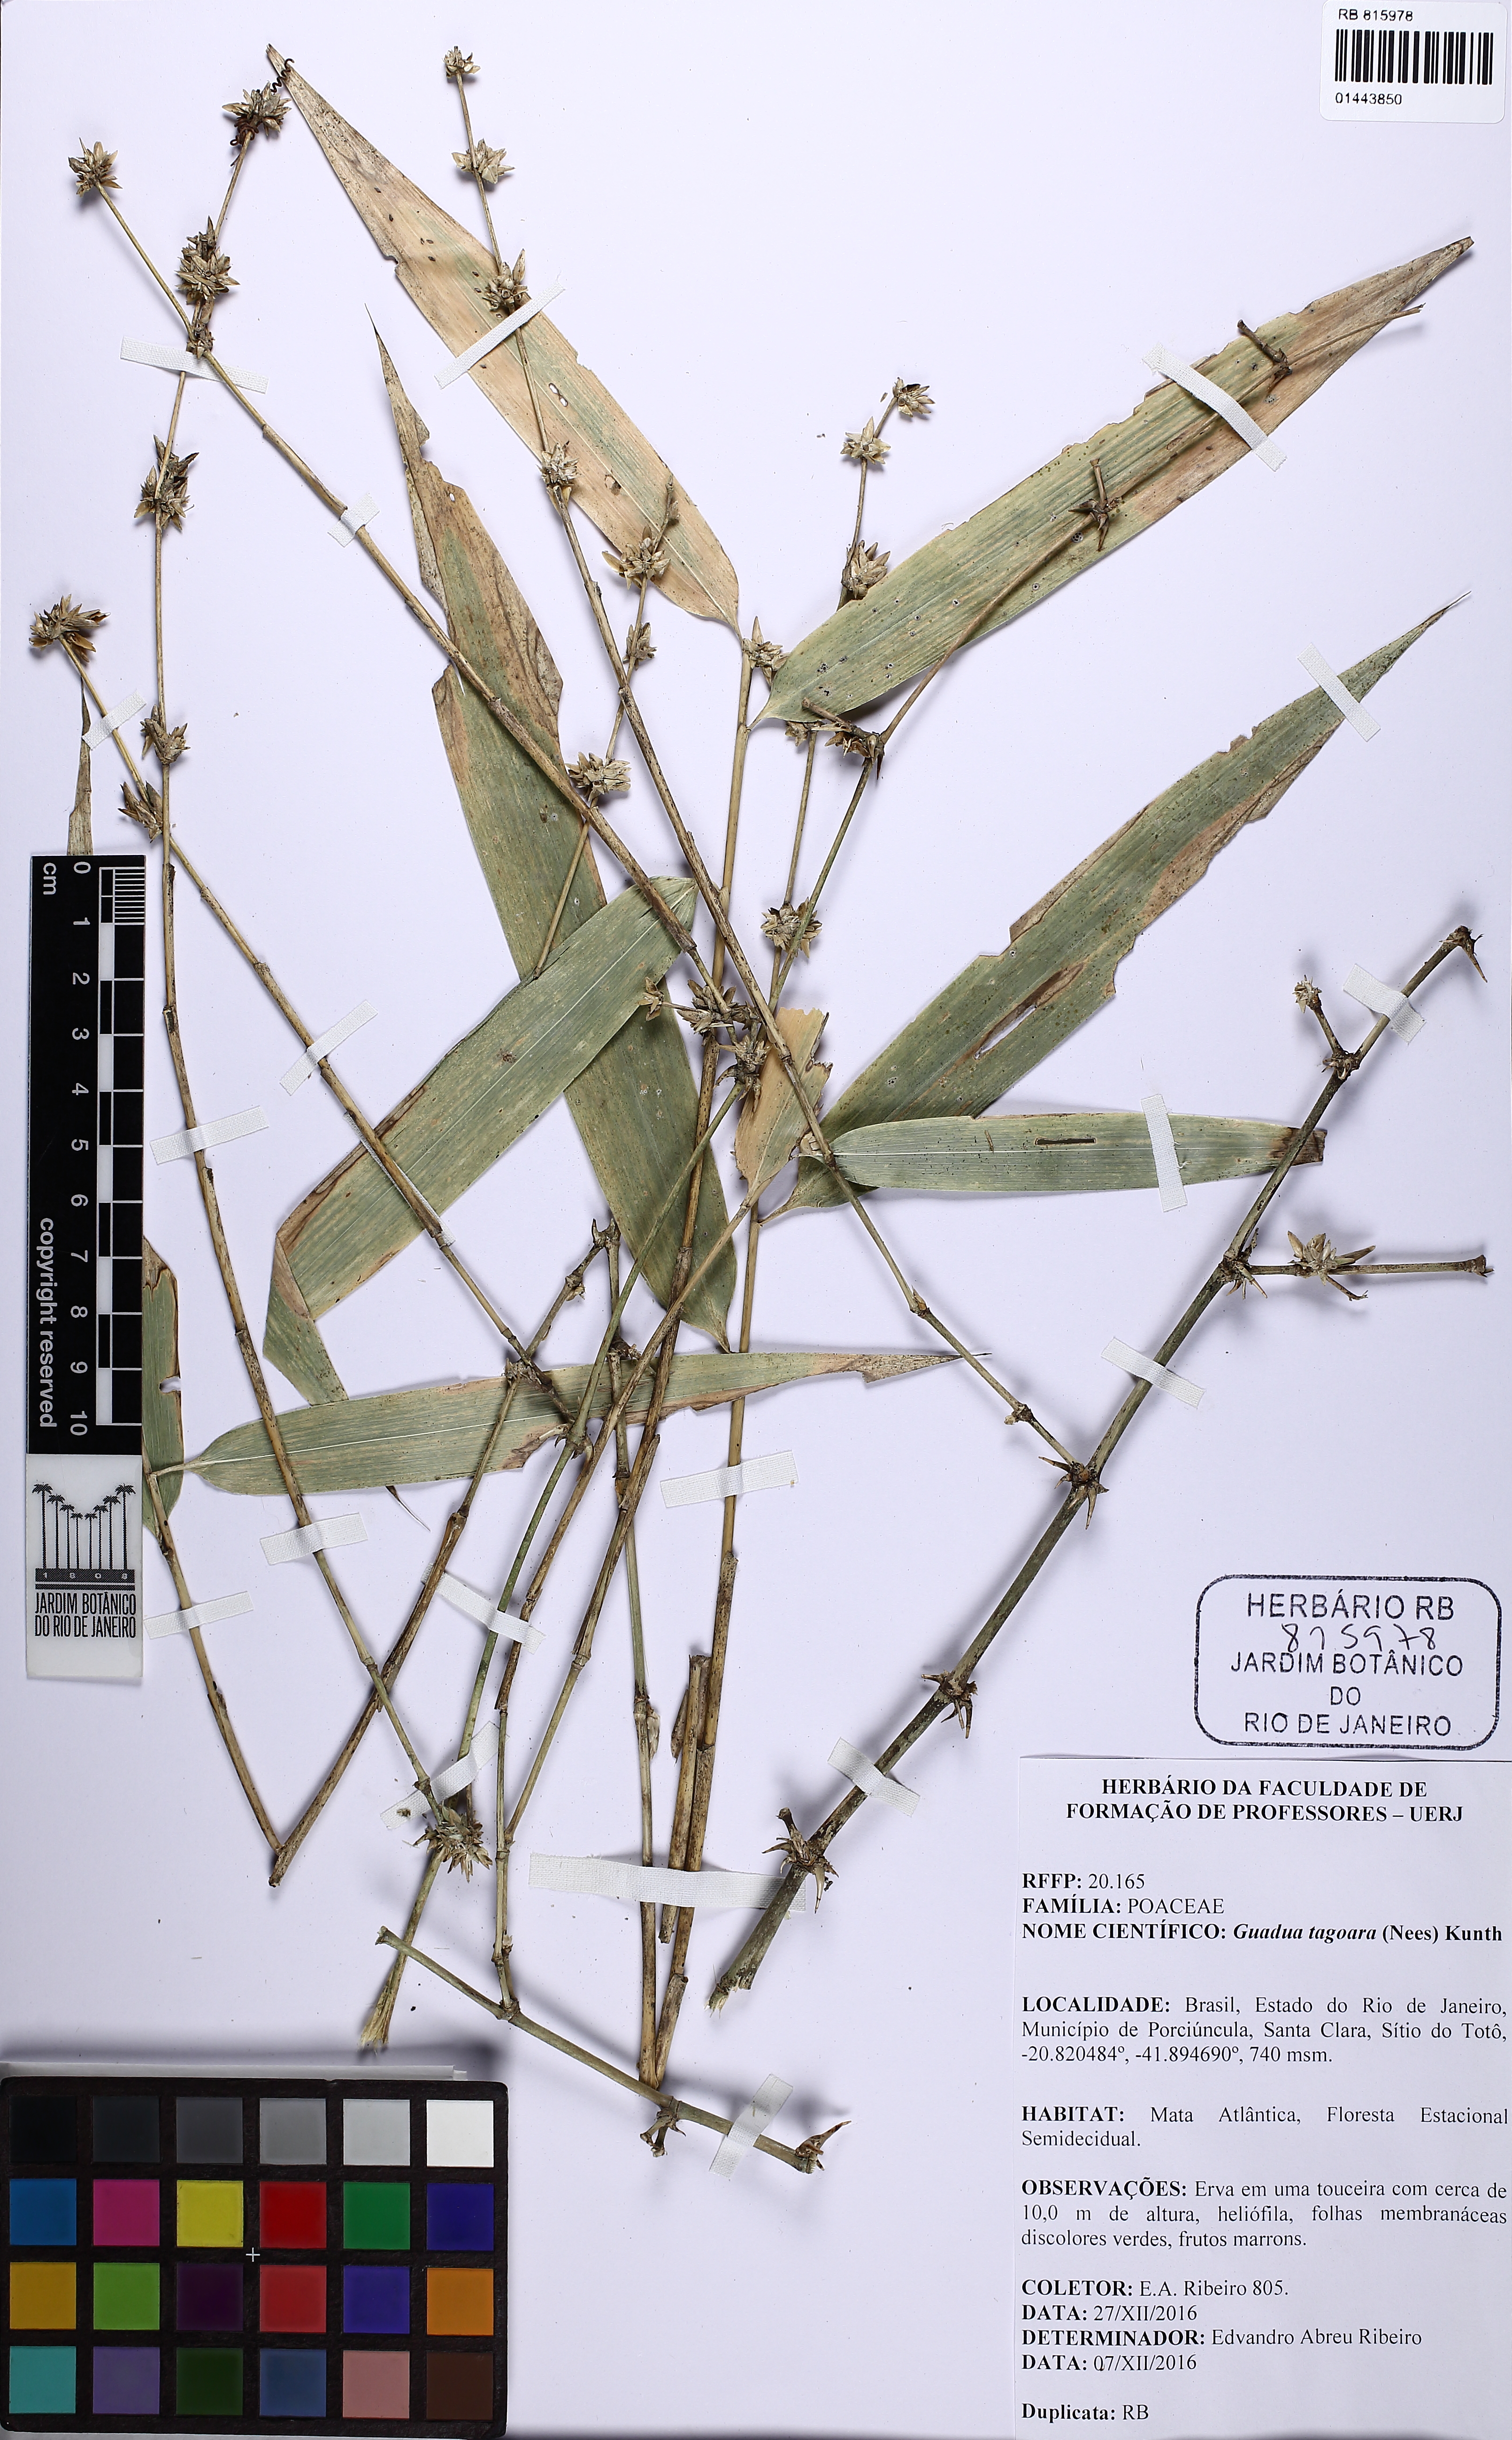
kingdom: Plantae
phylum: Tracheophyta
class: Liliopsida
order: Poales
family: Poaceae
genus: Guadua
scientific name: Guadua tagoara
